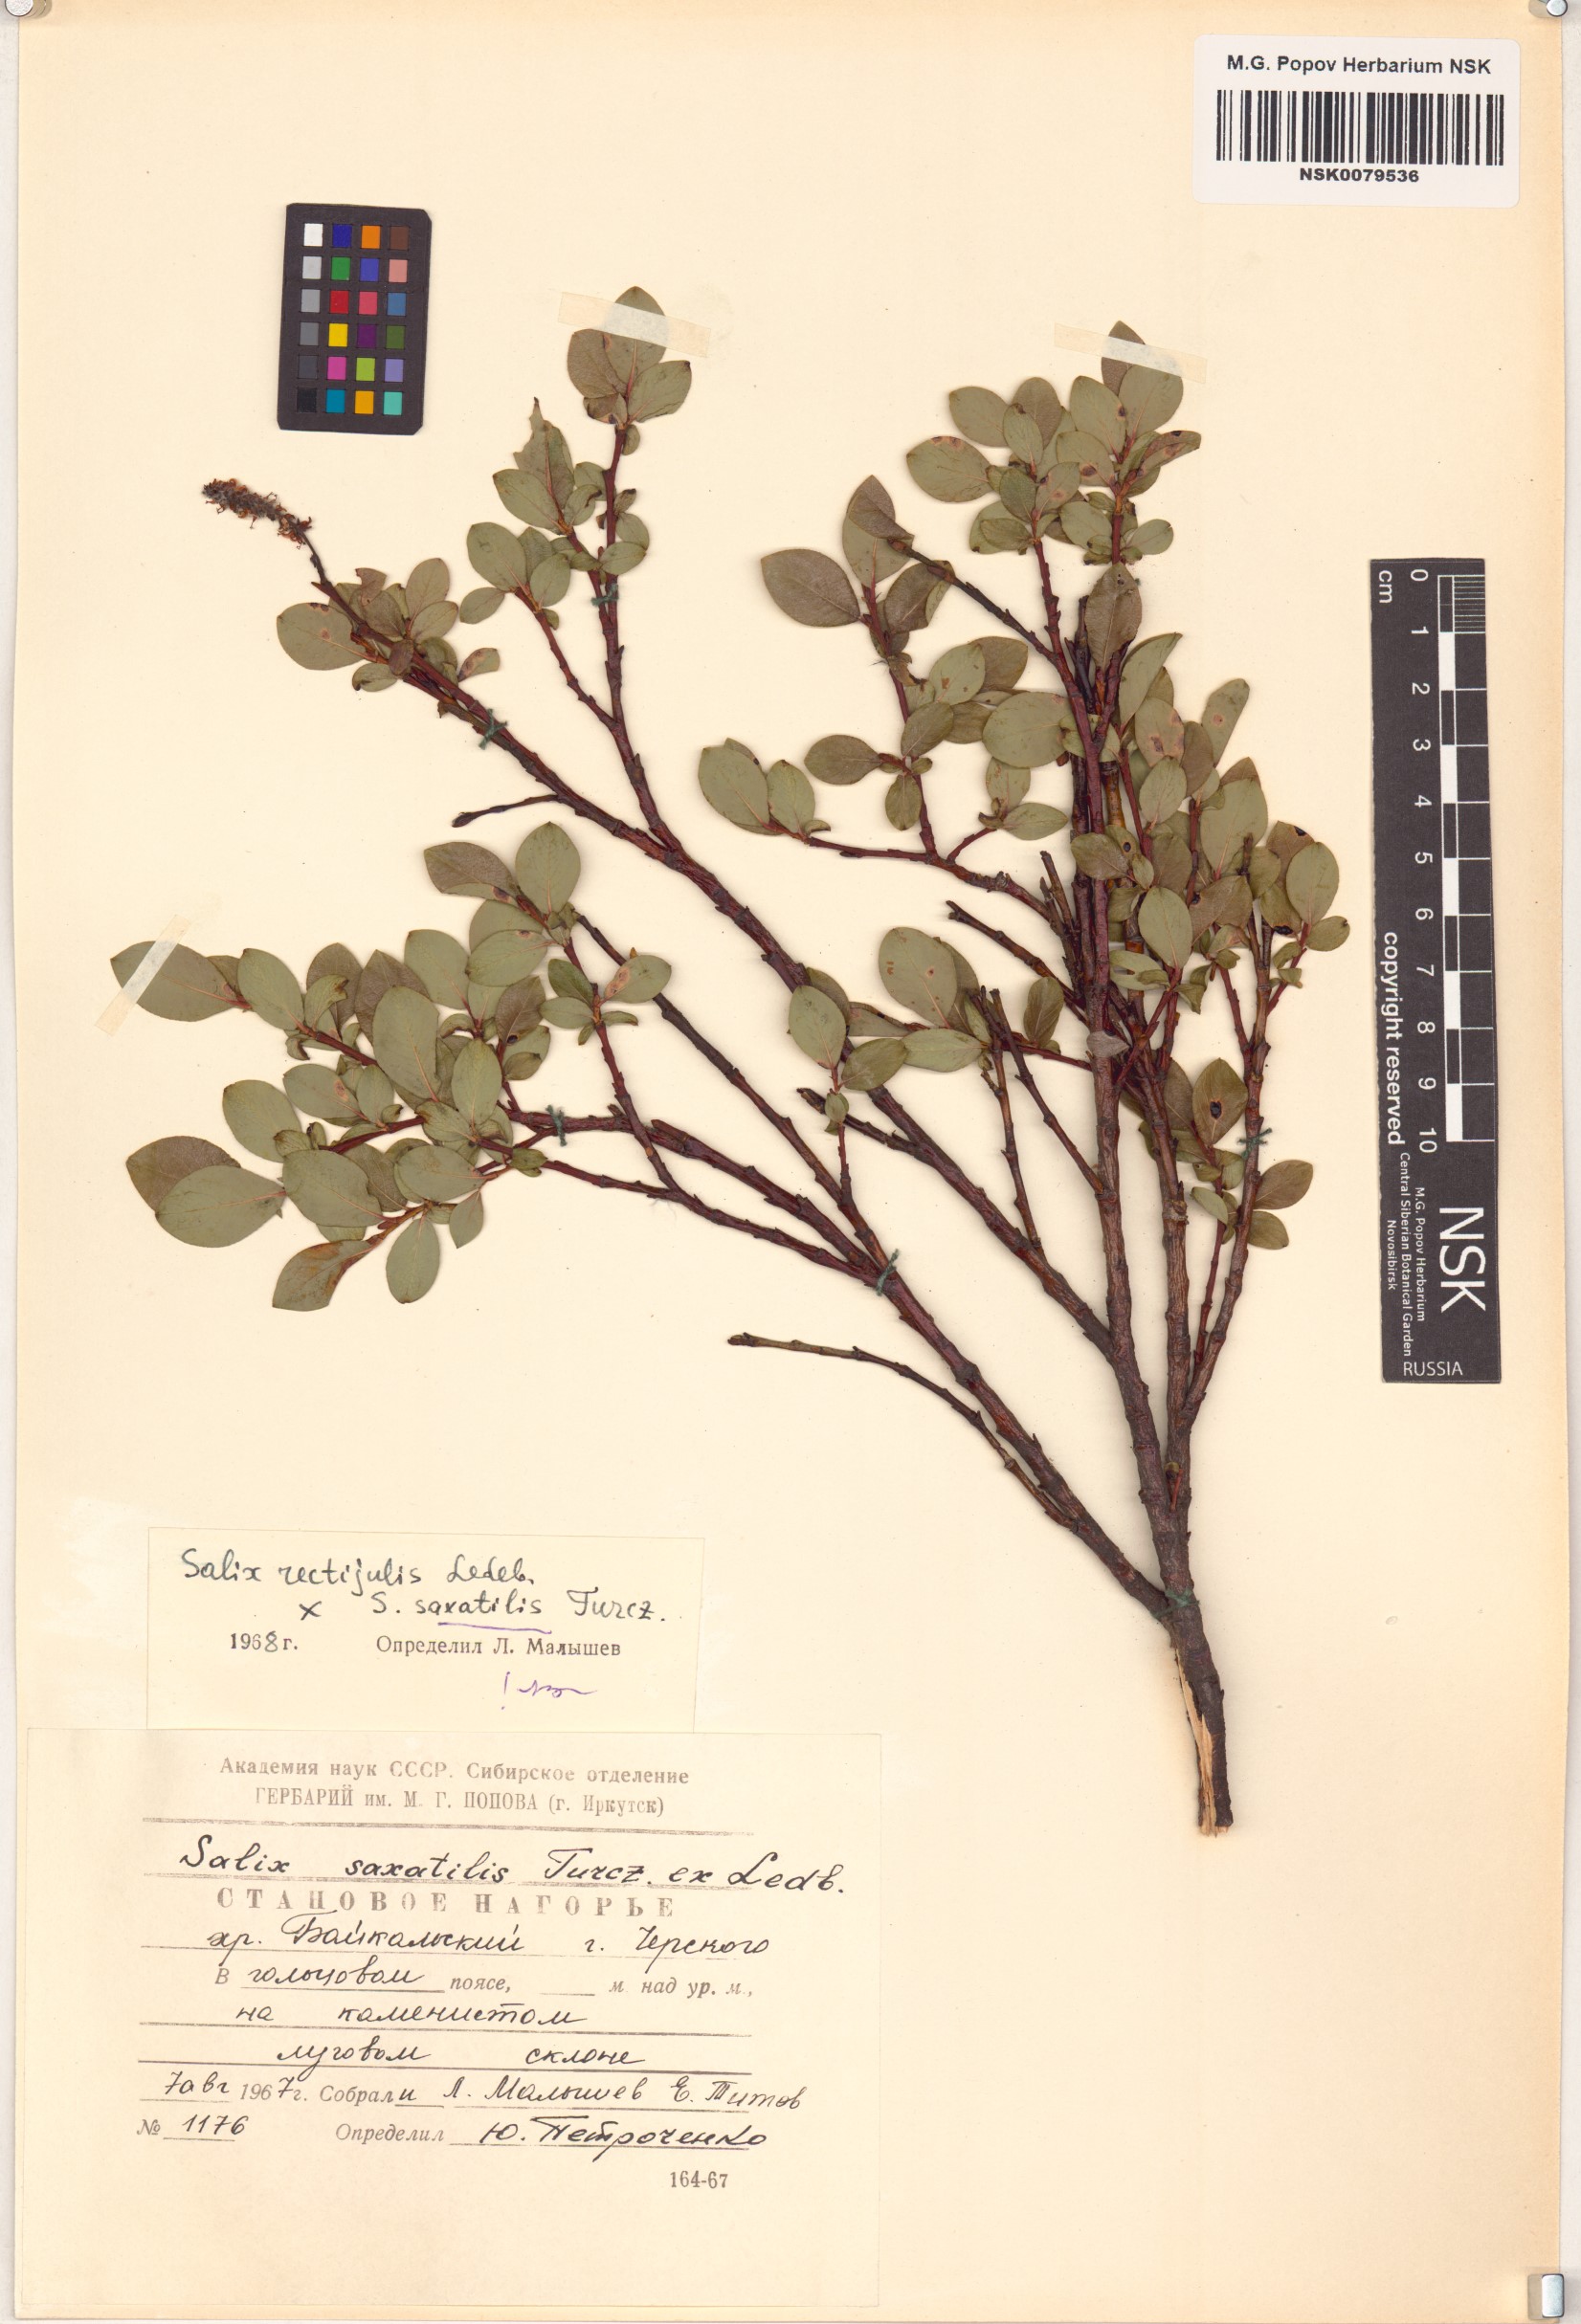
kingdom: Plantae
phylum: Tracheophyta
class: Magnoliopsida
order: Malpighiales
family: Salicaceae
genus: Salix
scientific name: Salix saxatilis
